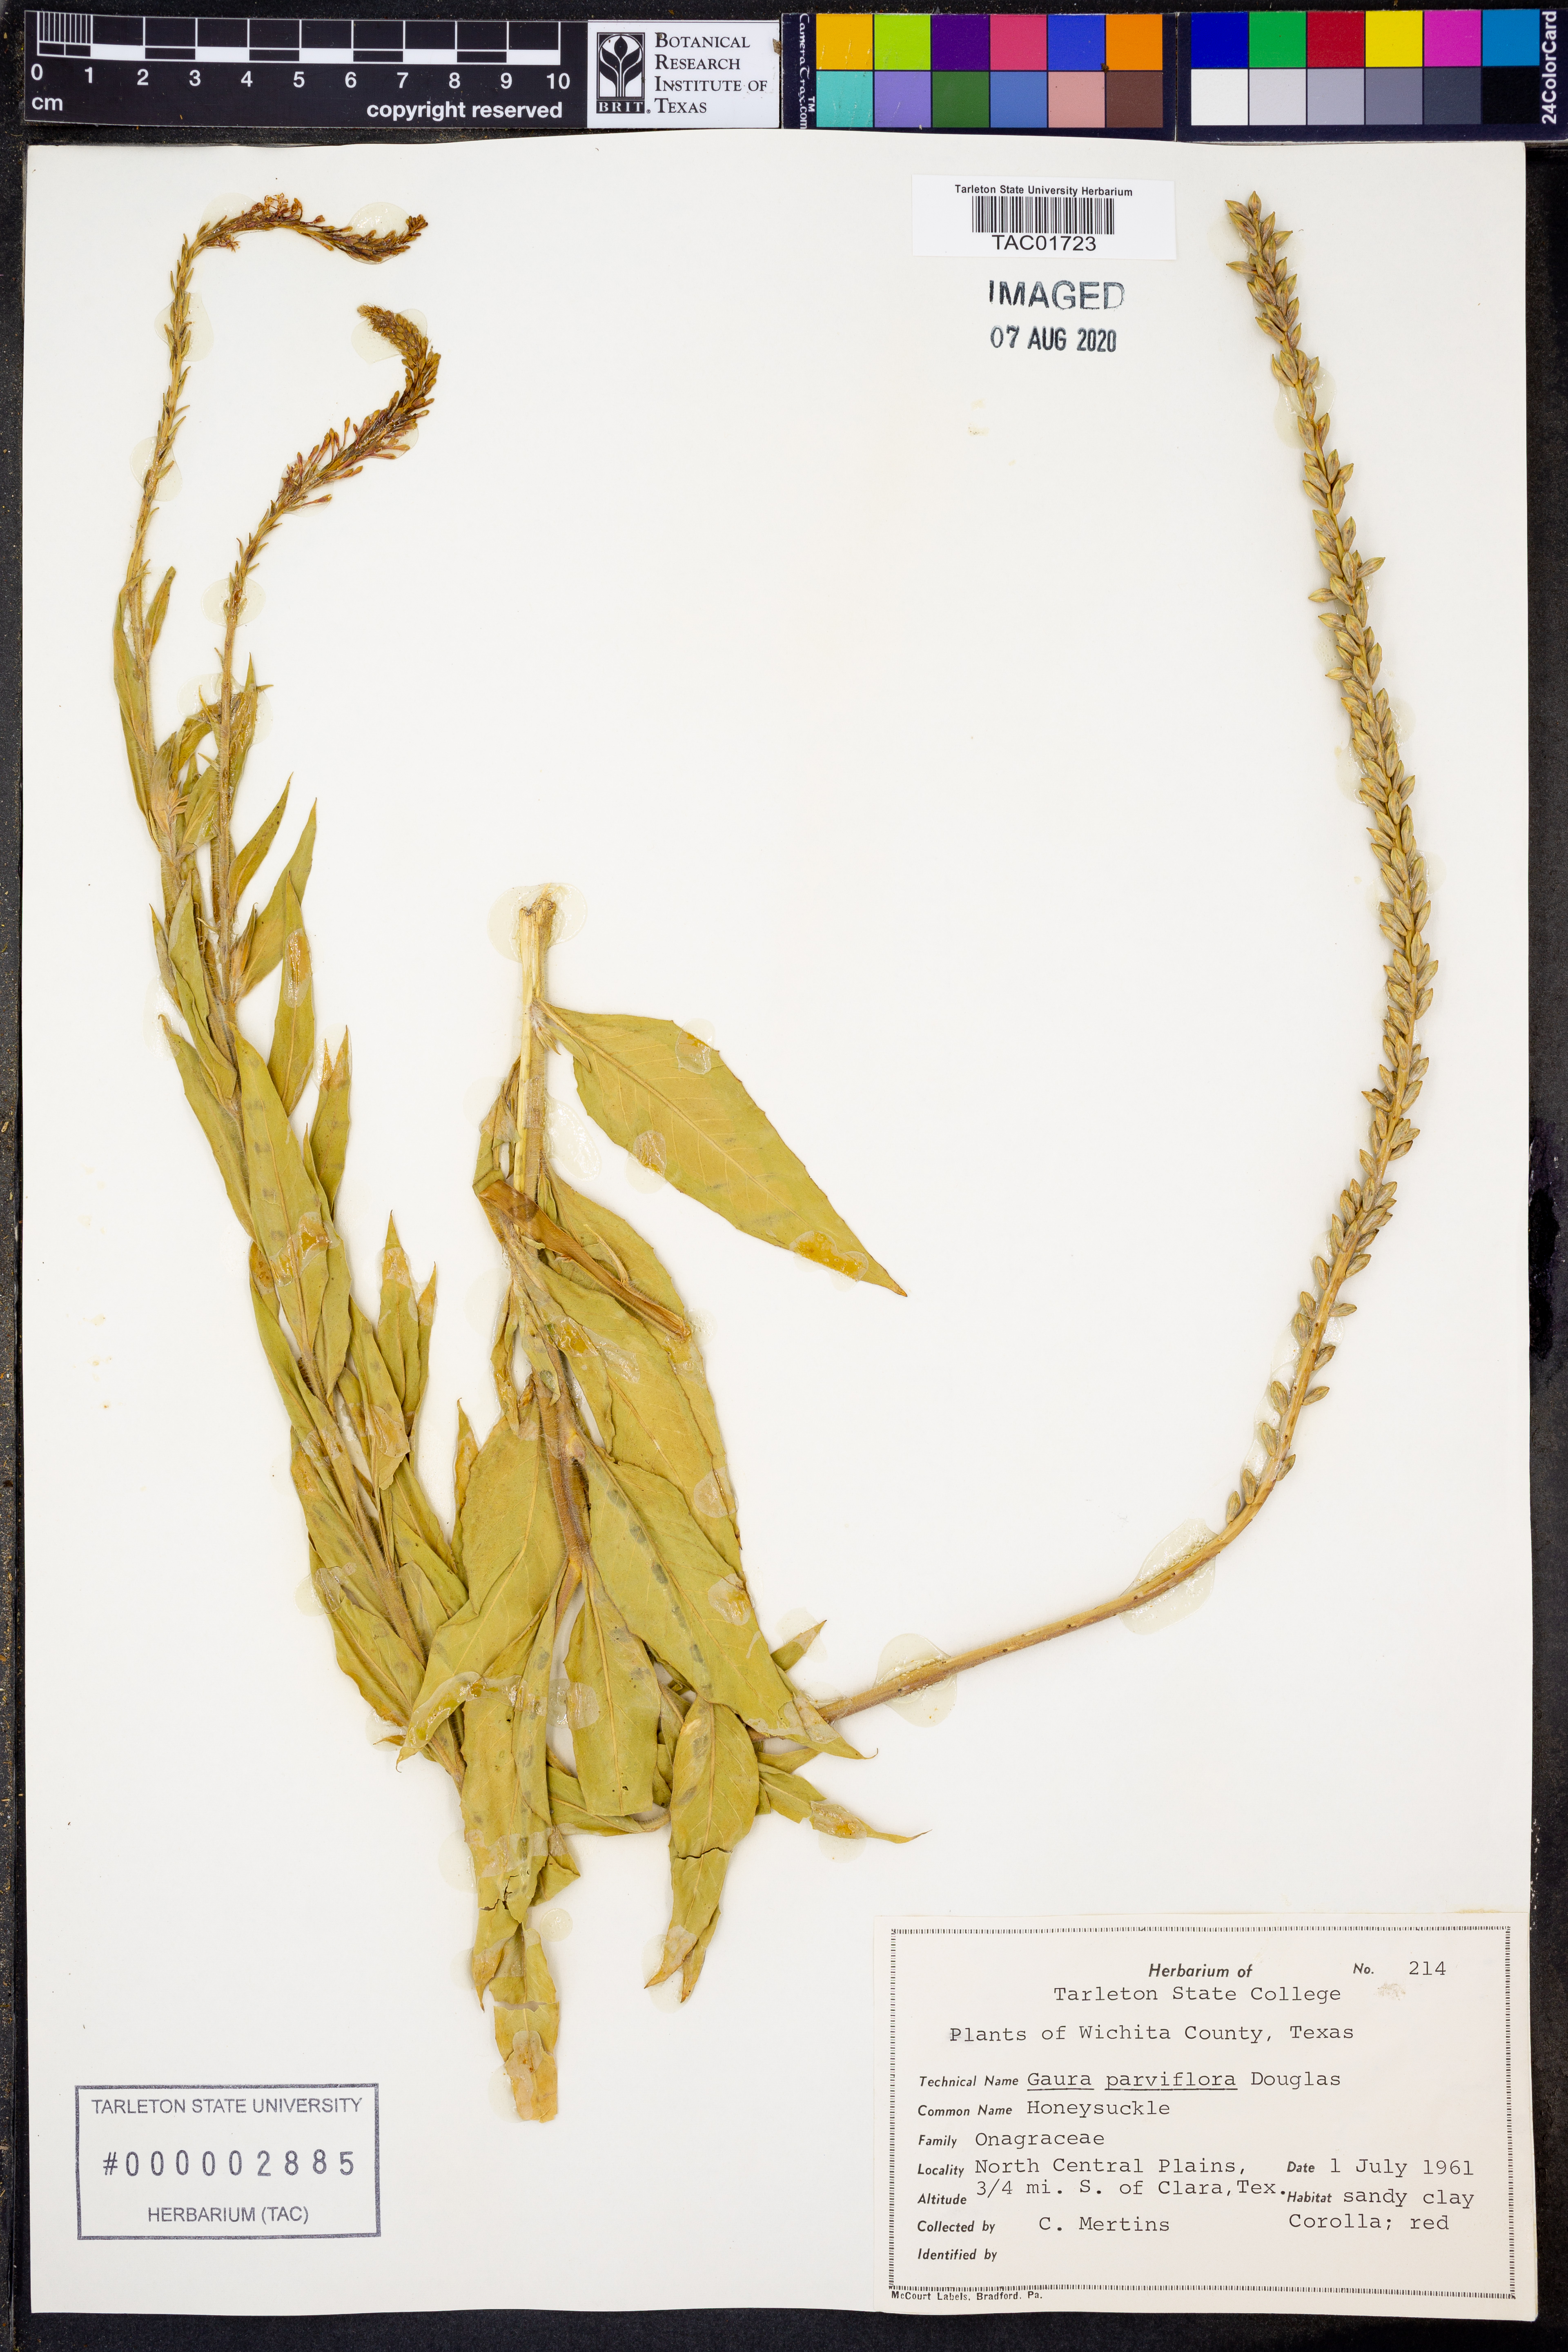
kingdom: Plantae
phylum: Tracheophyta
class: Magnoliopsida
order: Myrtales
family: Onagraceae
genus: Oenothera
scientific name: Oenothera curtiflora
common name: Velvetweed
